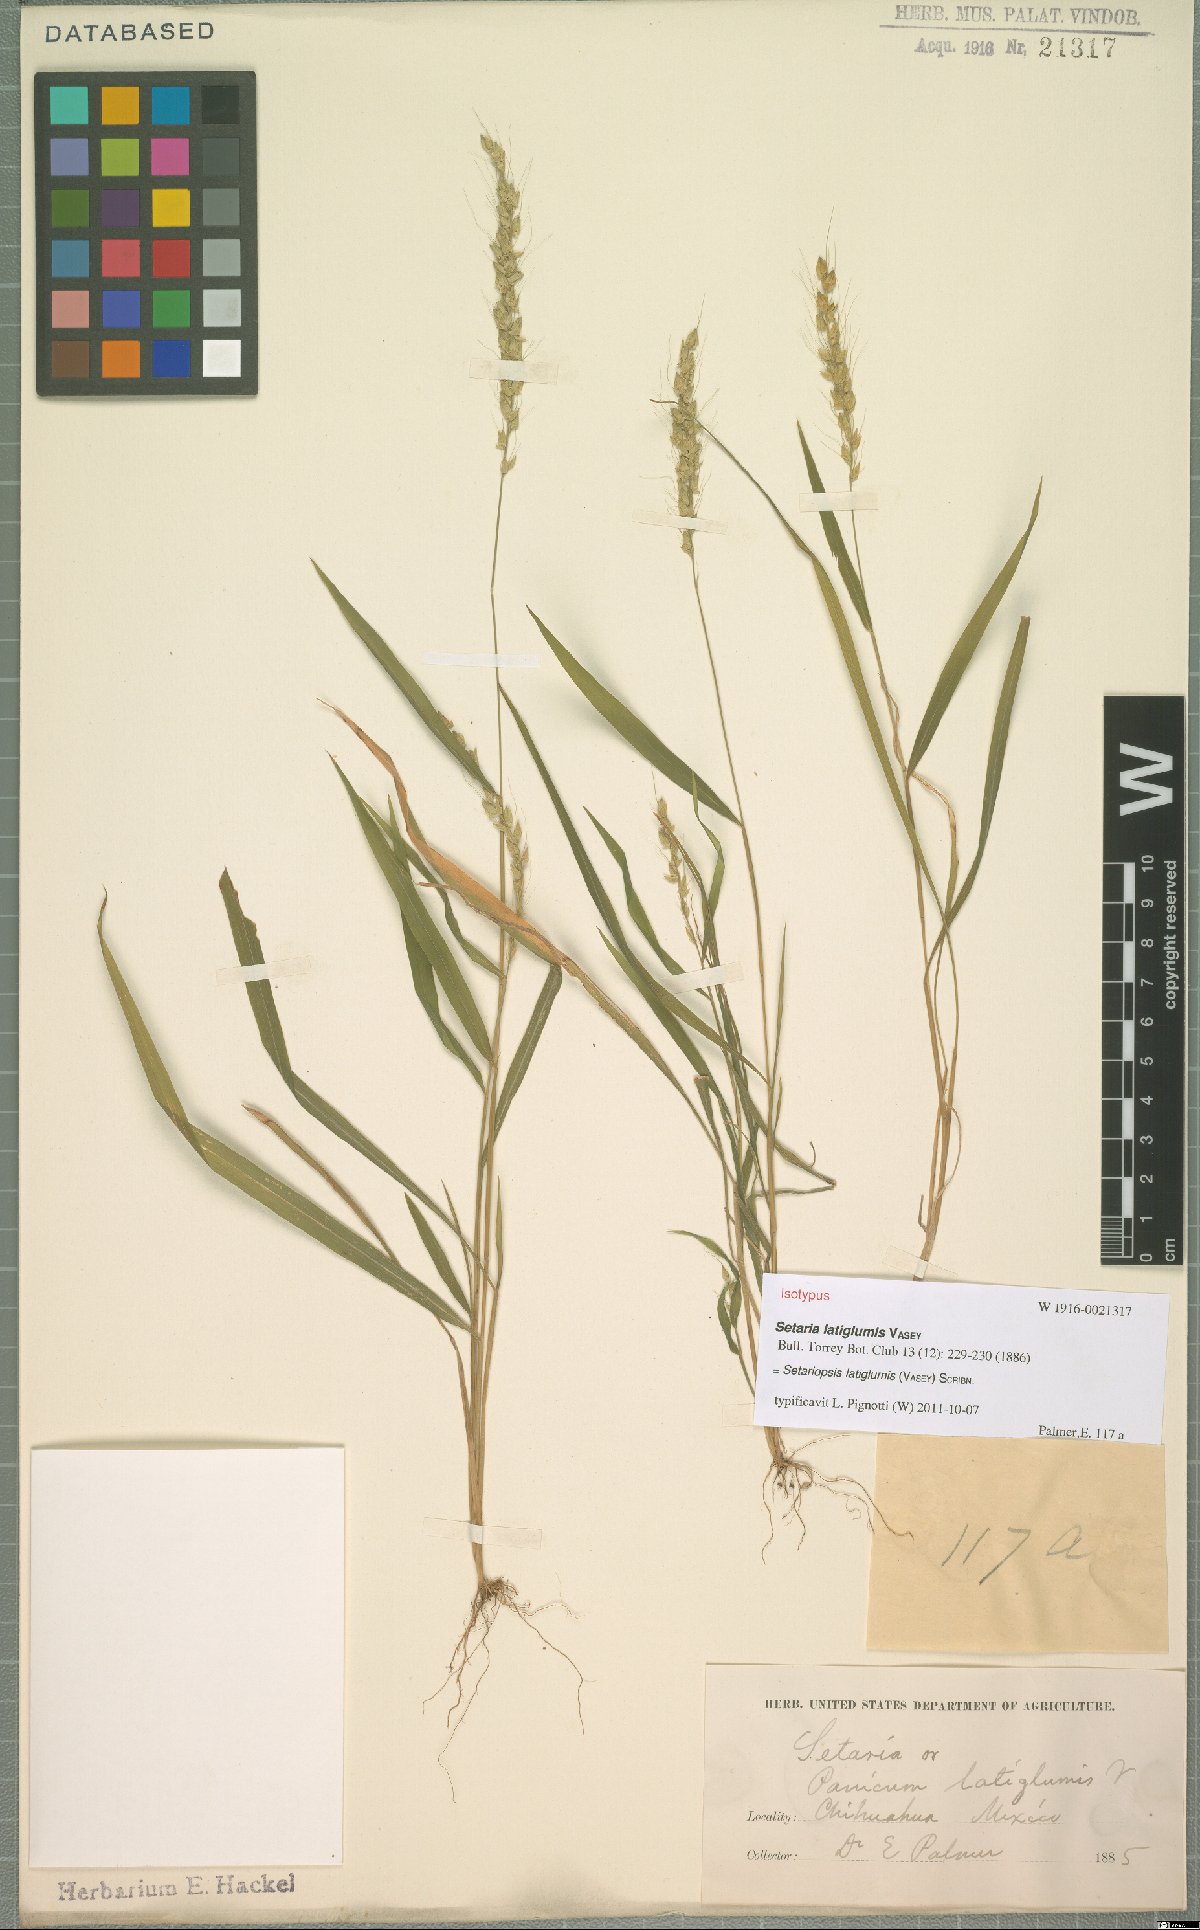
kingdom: Plantae
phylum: Tracheophyta
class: Liliopsida
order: Poales
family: Poaceae
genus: Setariopsis
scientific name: Setariopsis latiglumis
